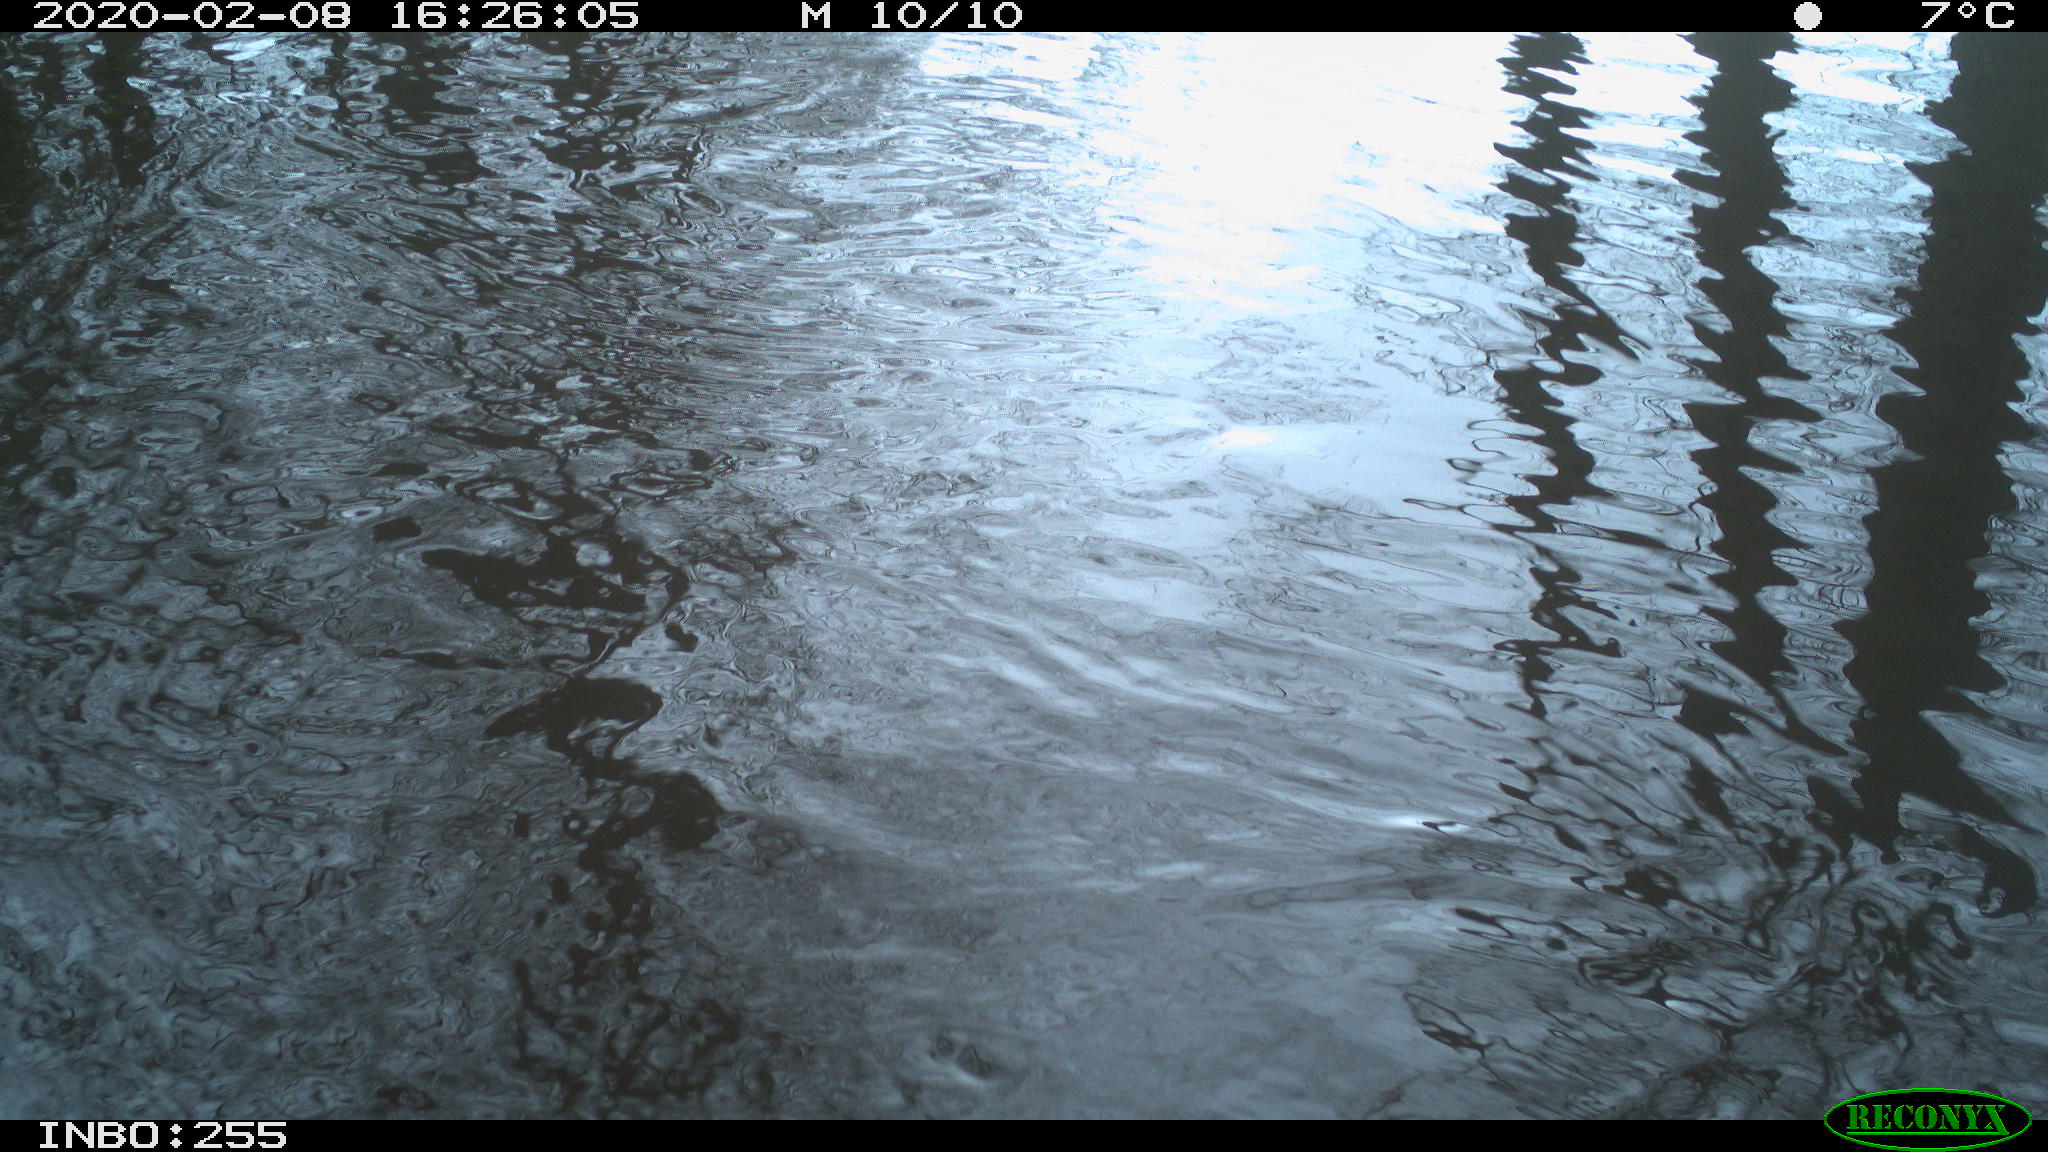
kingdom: Animalia
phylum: Chordata
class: Aves
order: Gruiformes
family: Rallidae
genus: Fulica
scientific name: Fulica atra
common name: Eurasian coot
